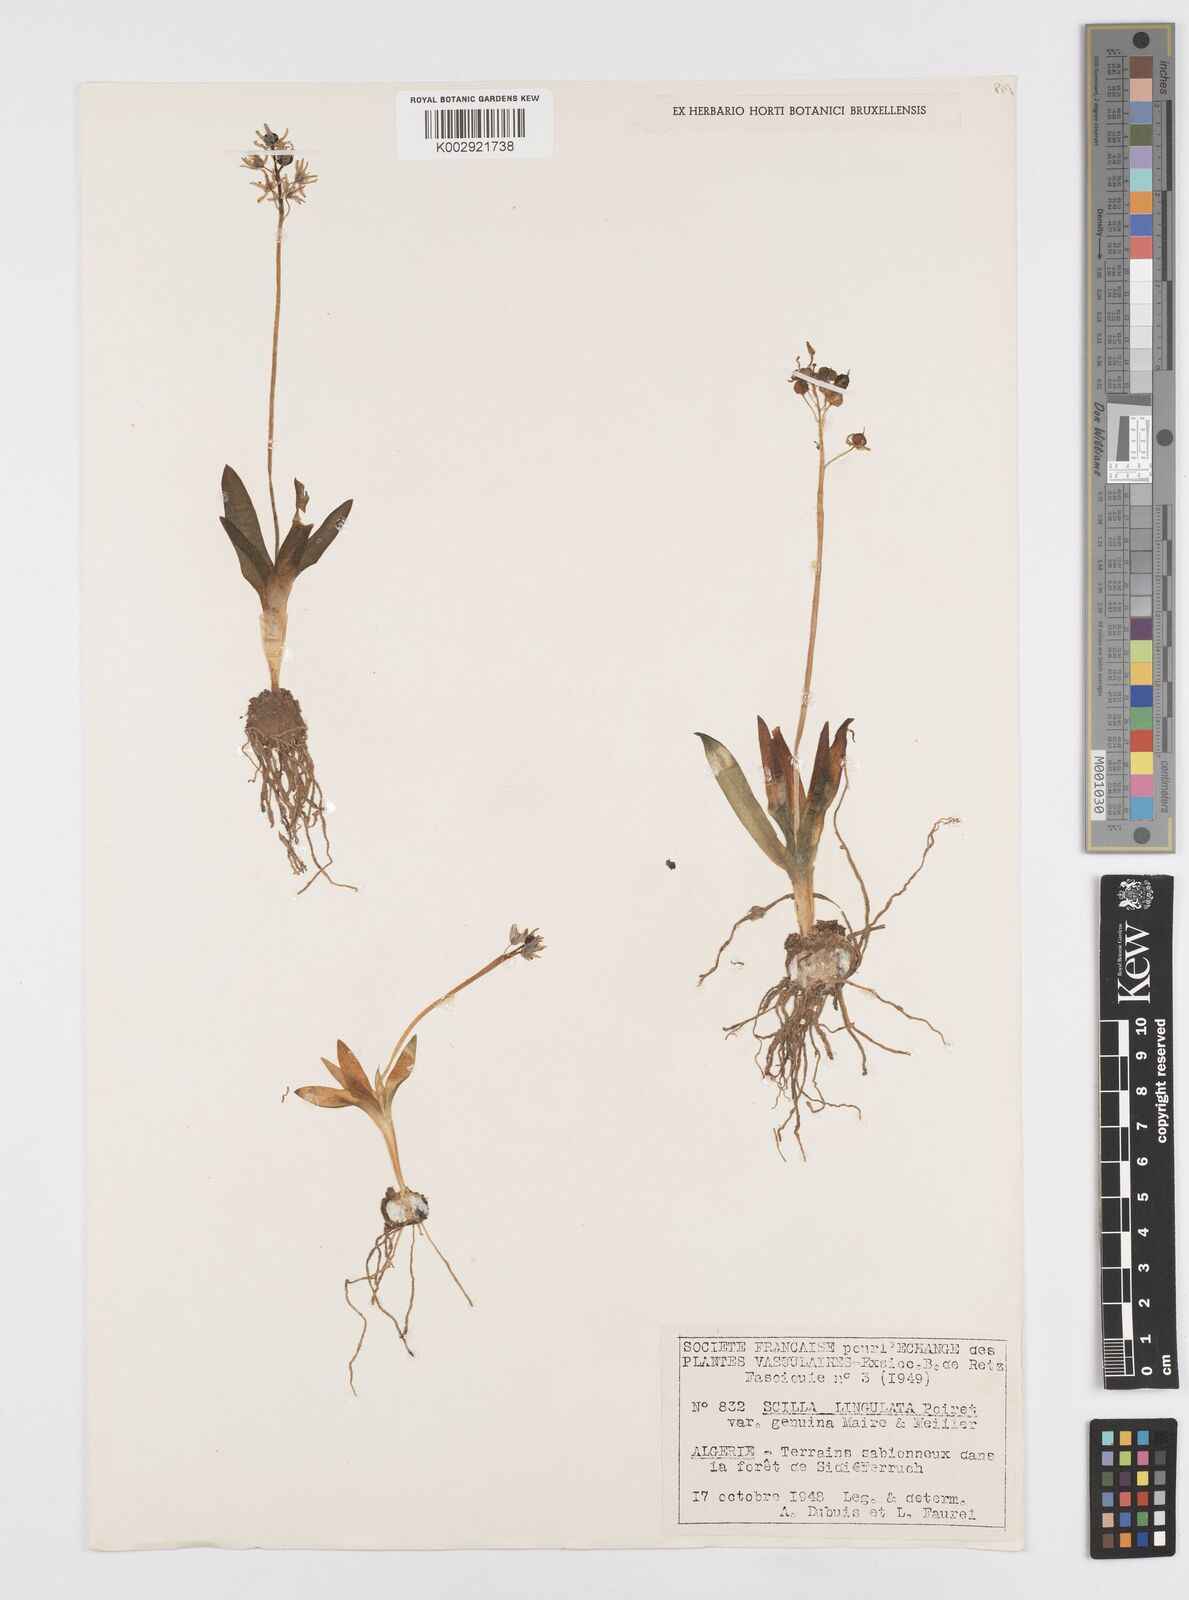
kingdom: Plantae
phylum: Tracheophyta
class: Liliopsida
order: Asparagales
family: Asparagaceae
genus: Hyacinthoides
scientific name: Hyacinthoides lingulata
